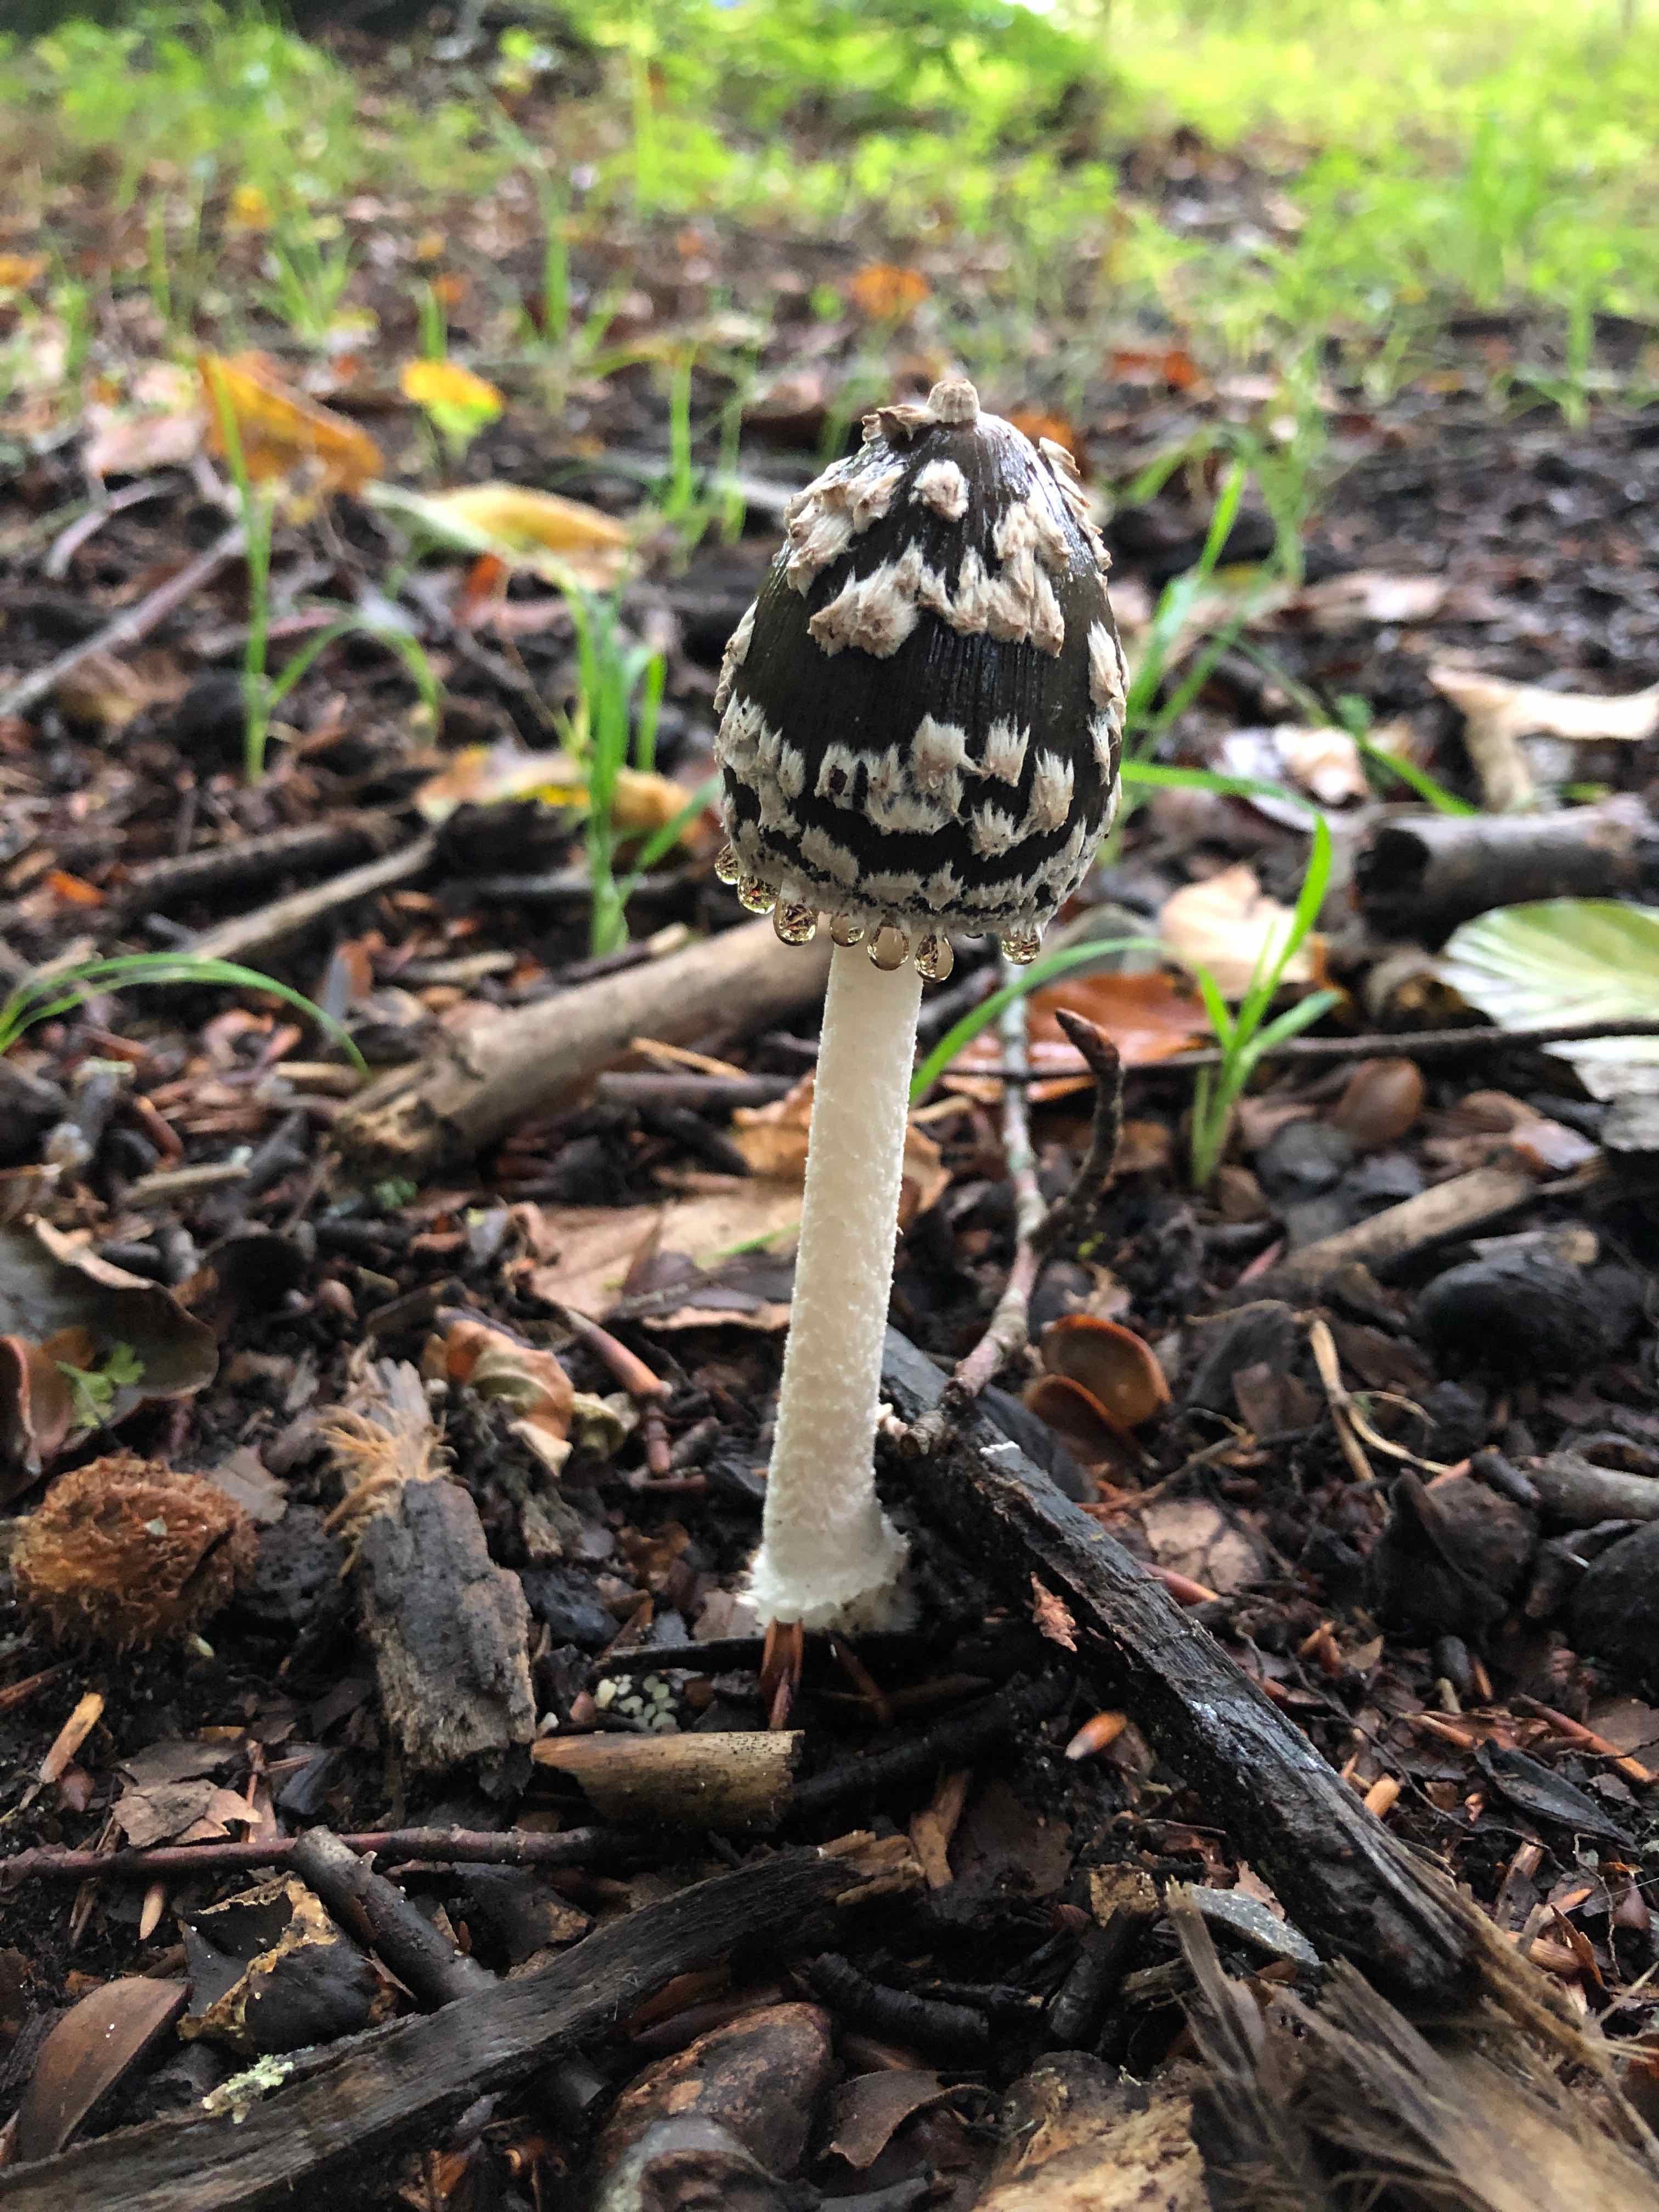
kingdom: Fungi
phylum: Basidiomycota
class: Agaricomycetes
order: Agaricales
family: Psathyrellaceae
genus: Coprinopsis
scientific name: Coprinopsis picacea
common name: skade-blækhat
